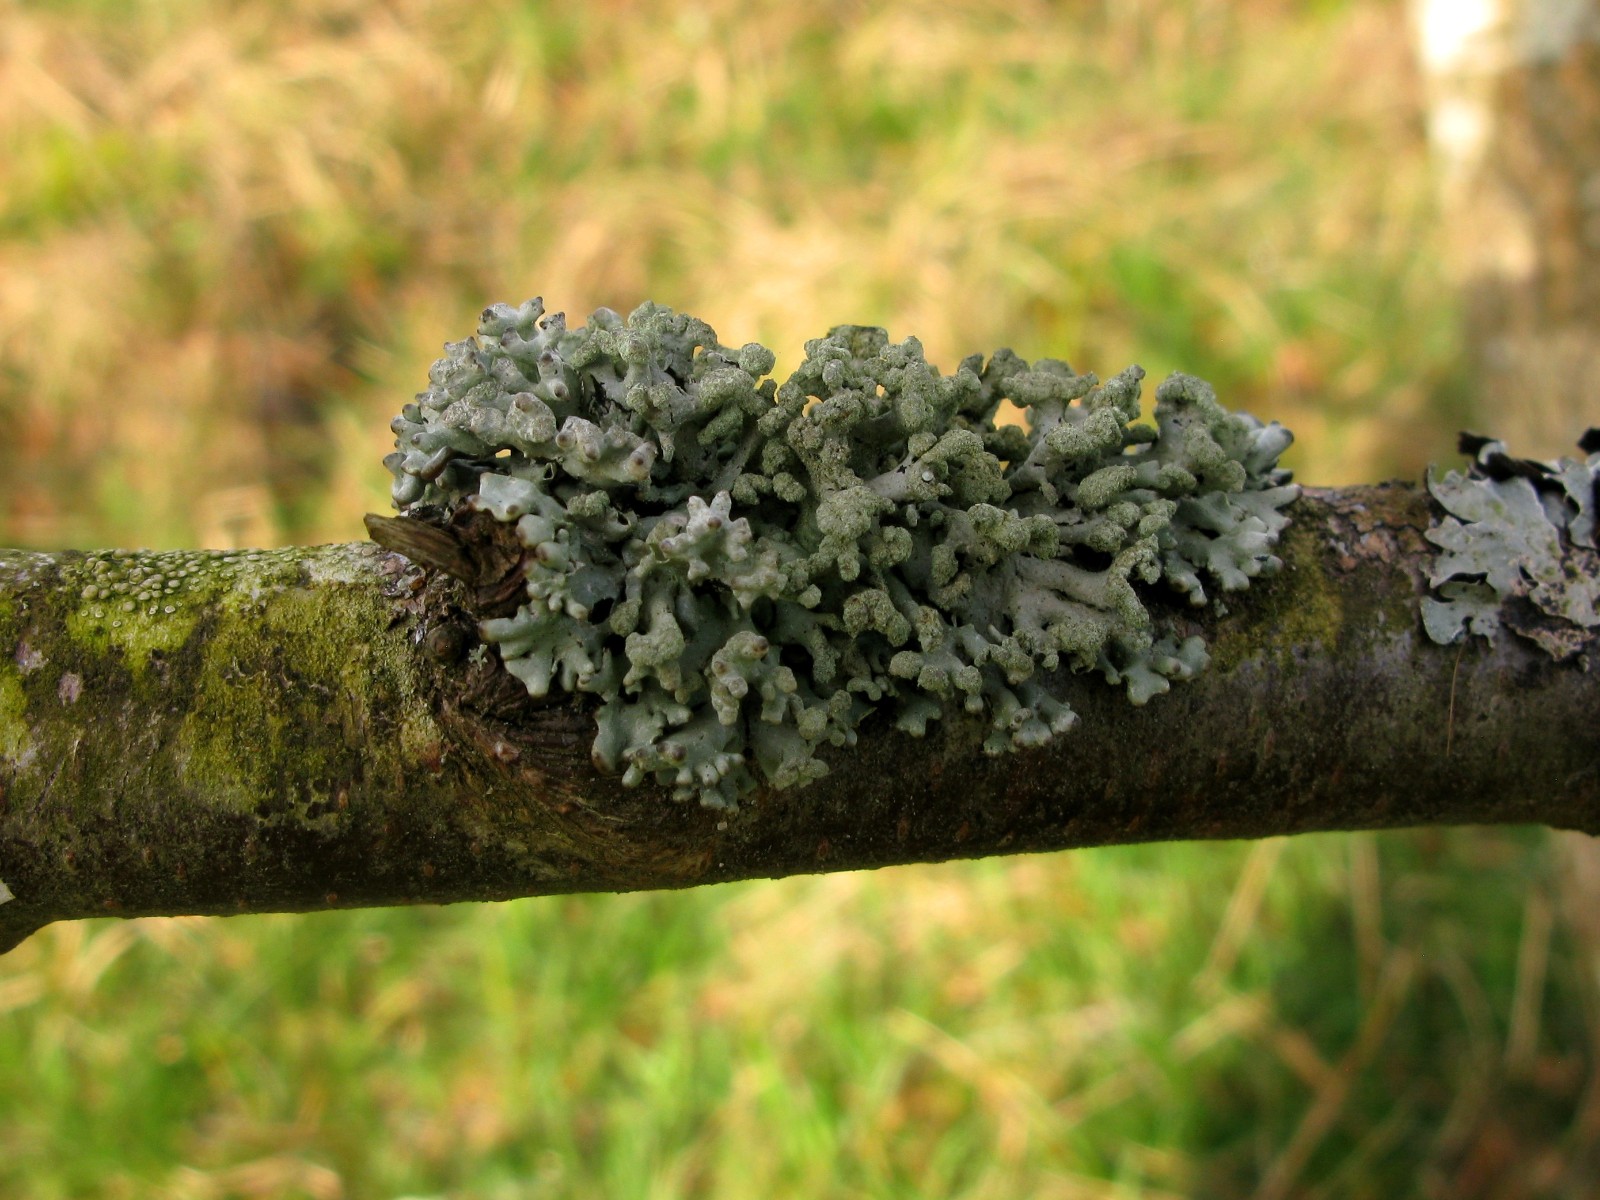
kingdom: Fungi
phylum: Ascomycota
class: Lecanoromycetes
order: Lecanorales
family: Parmeliaceae
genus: Hypogymnia
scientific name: Hypogymnia tubulosa
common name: finger-kvistlav
